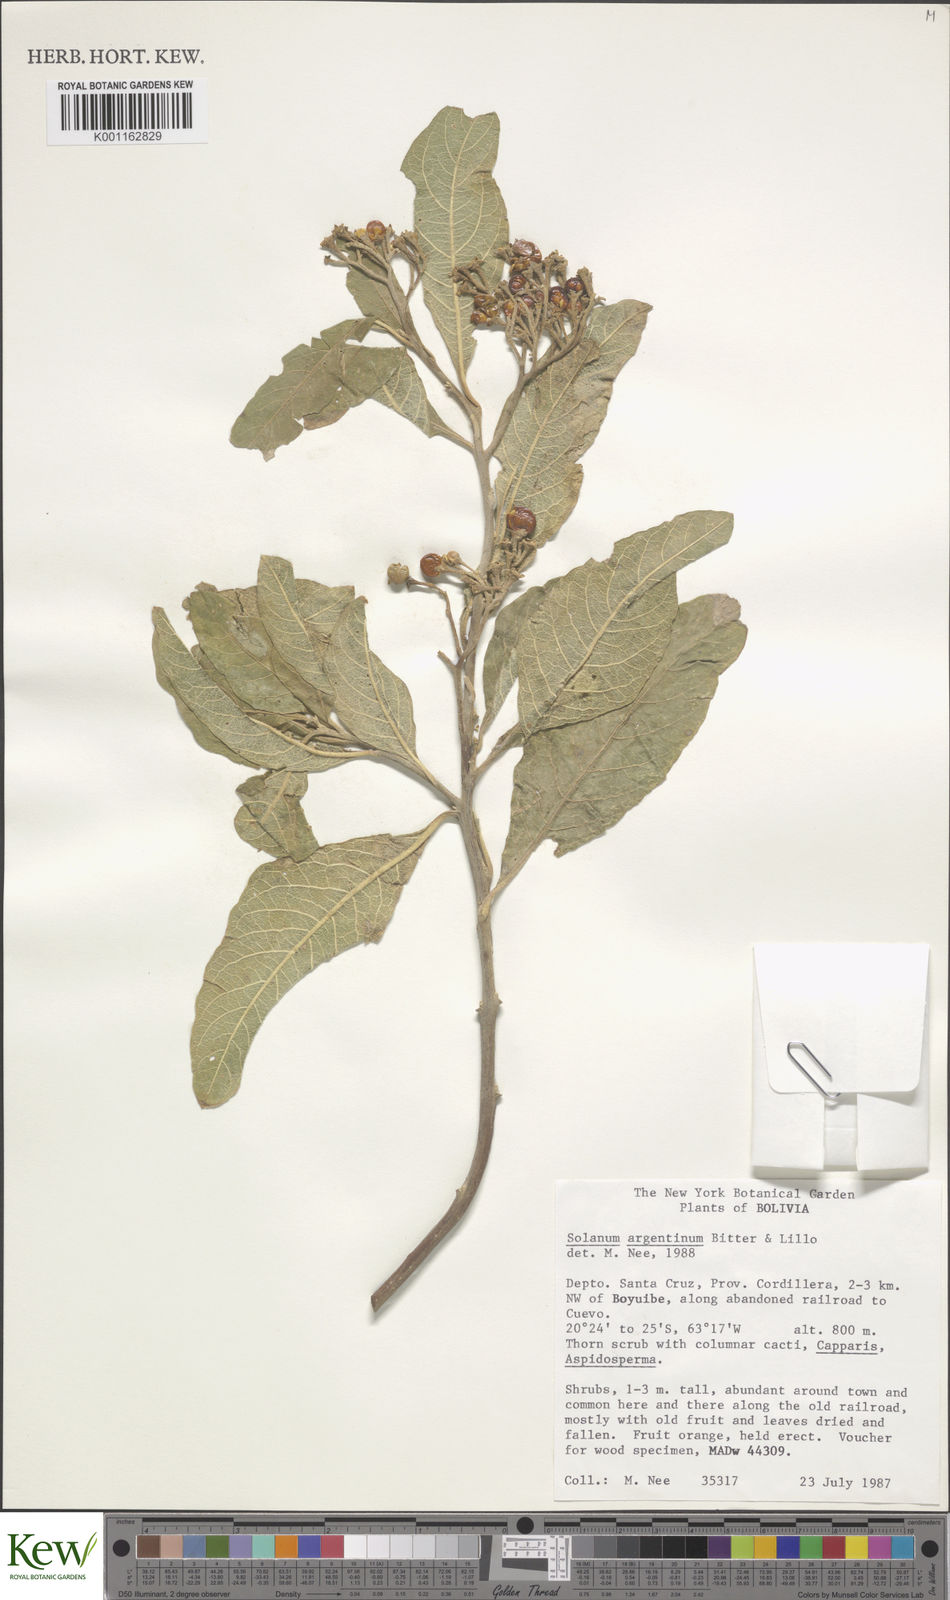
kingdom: Plantae
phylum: Tracheophyta
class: Magnoliopsida
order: Solanales
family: Solanaceae
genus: Solanum
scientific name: Solanum argentinum
